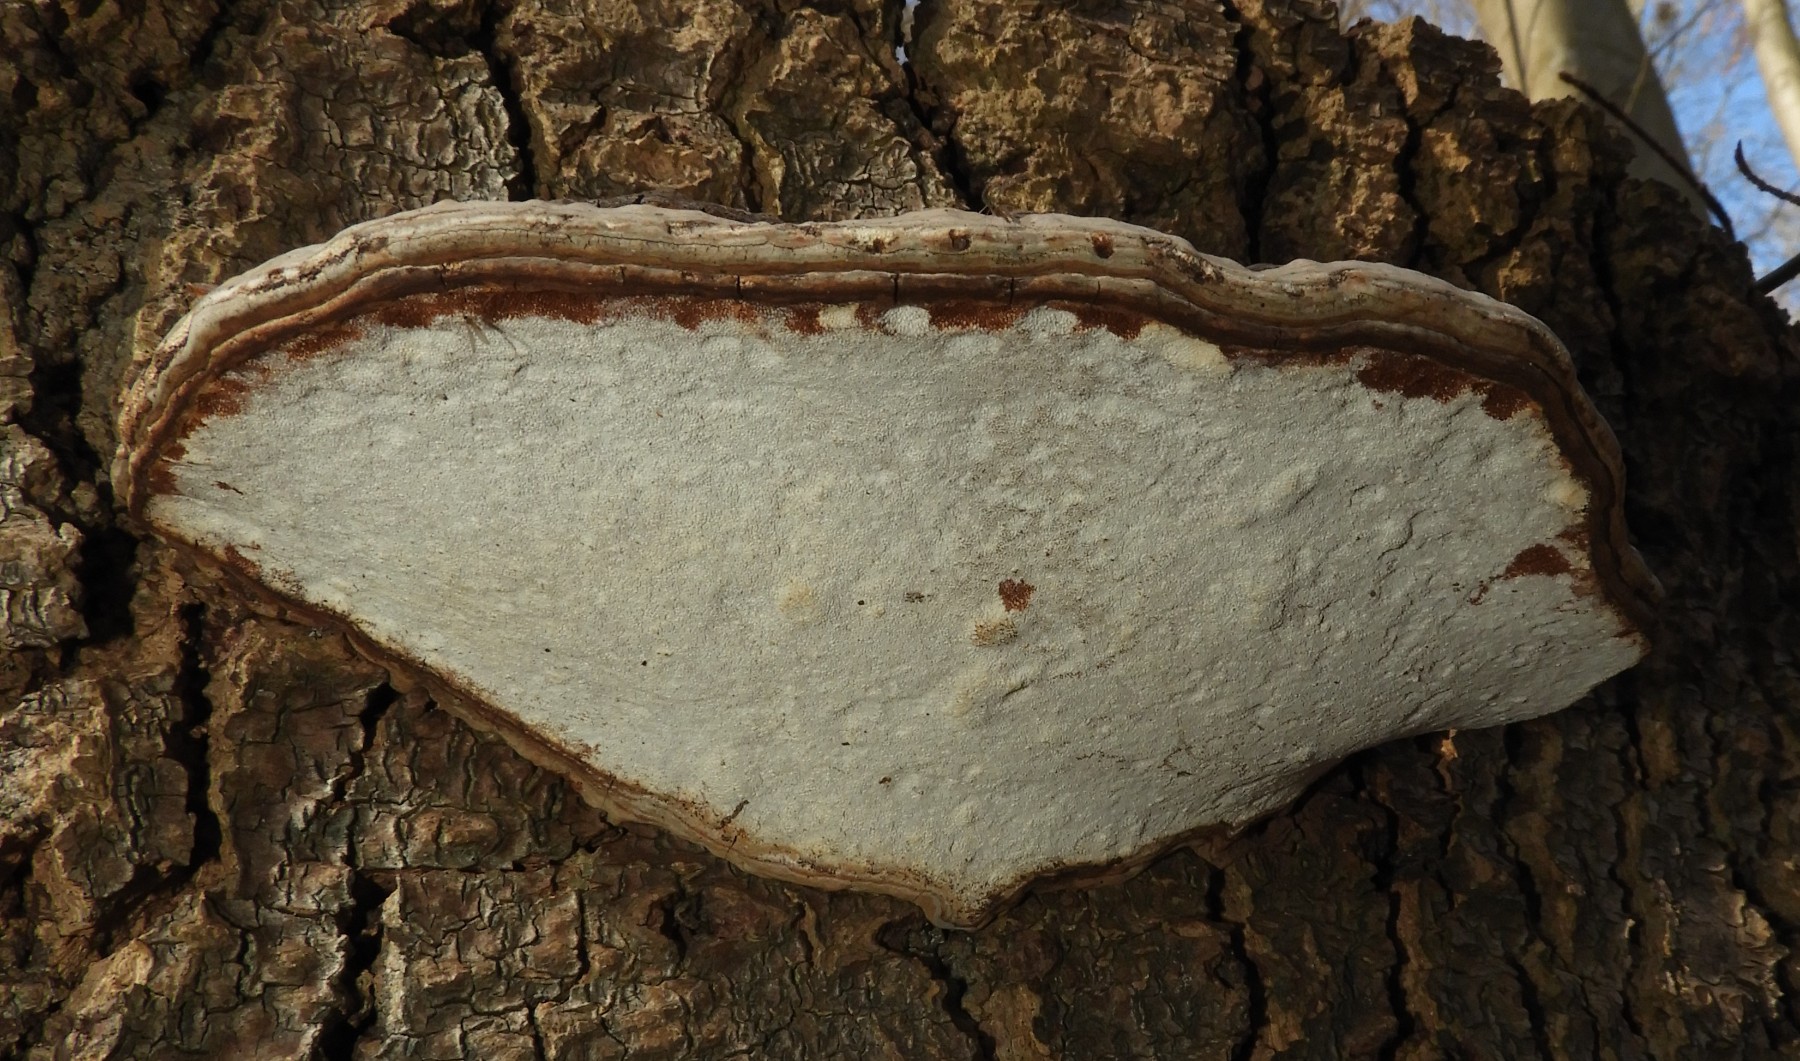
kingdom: Fungi
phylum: Basidiomycota
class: Agaricomycetes
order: Polyporales
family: Polyporaceae
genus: Ganoderma
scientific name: Ganoderma applanatum
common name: flad lakporesvamp
